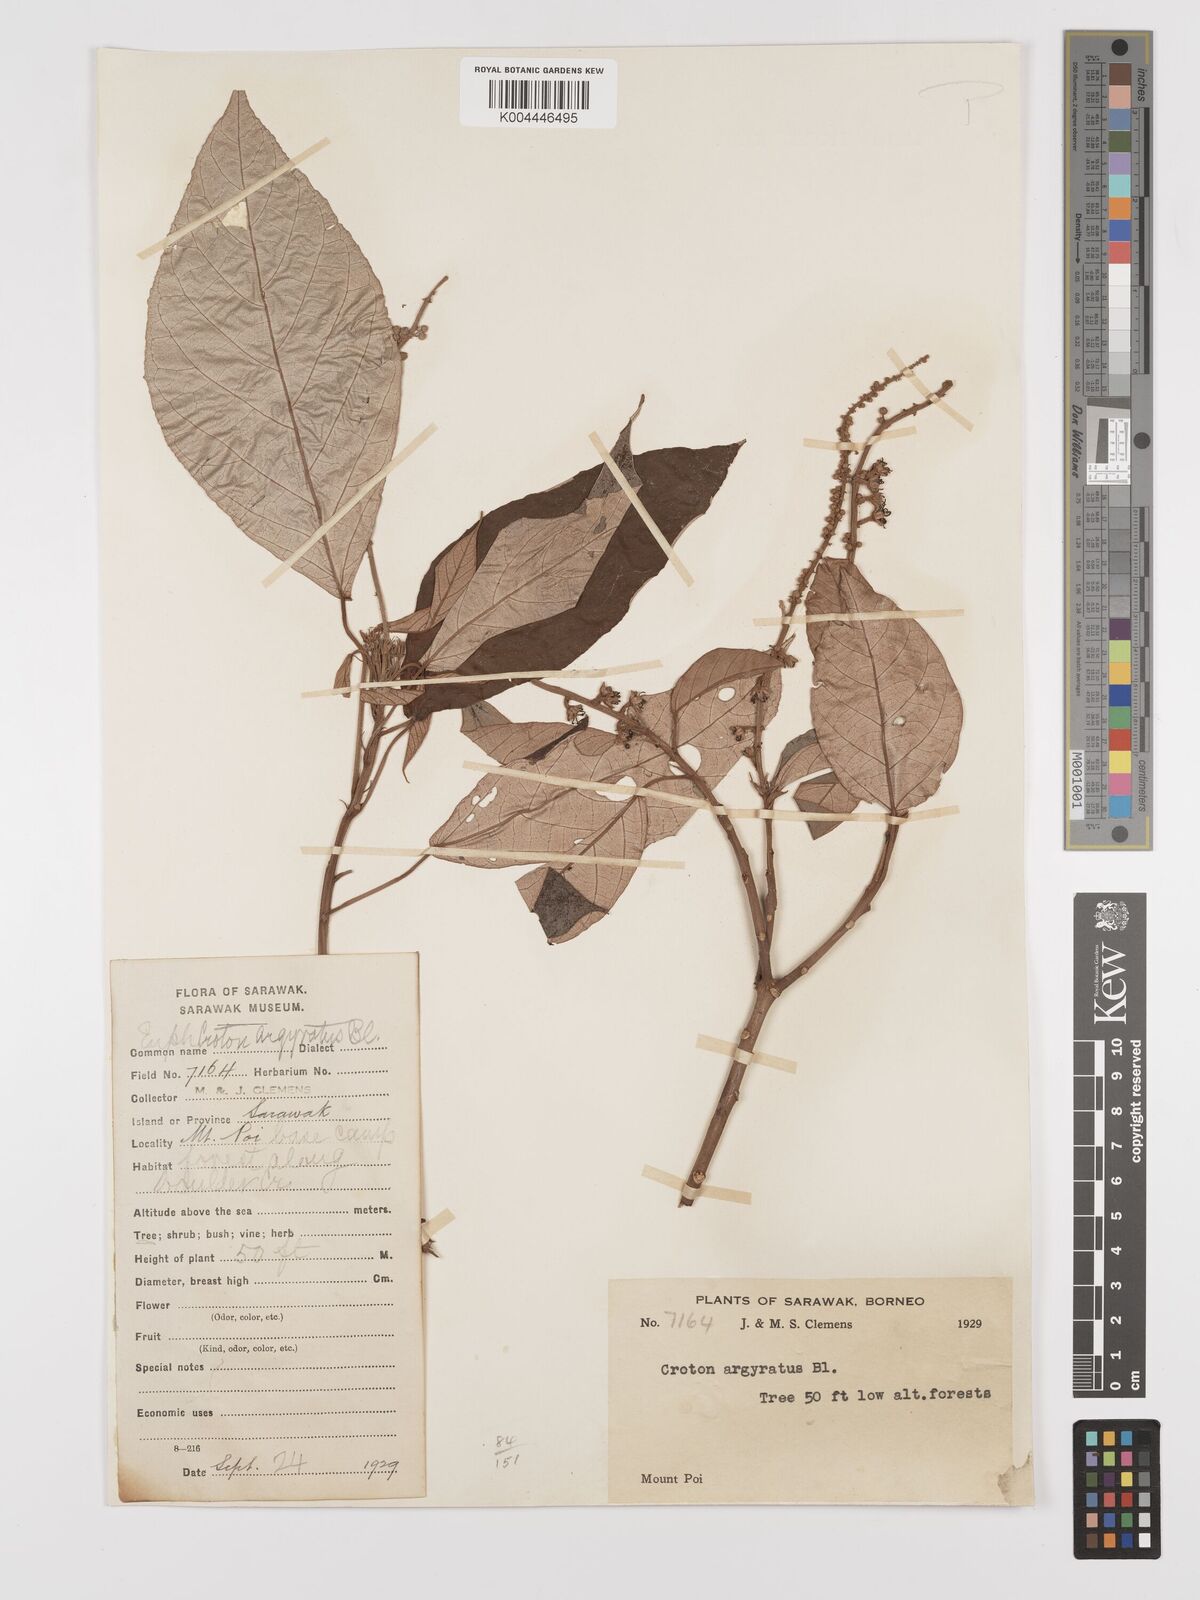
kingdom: Plantae
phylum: Tracheophyta
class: Magnoliopsida
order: Malpighiales
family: Euphorbiaceae
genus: Croton
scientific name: Croton argyratus
